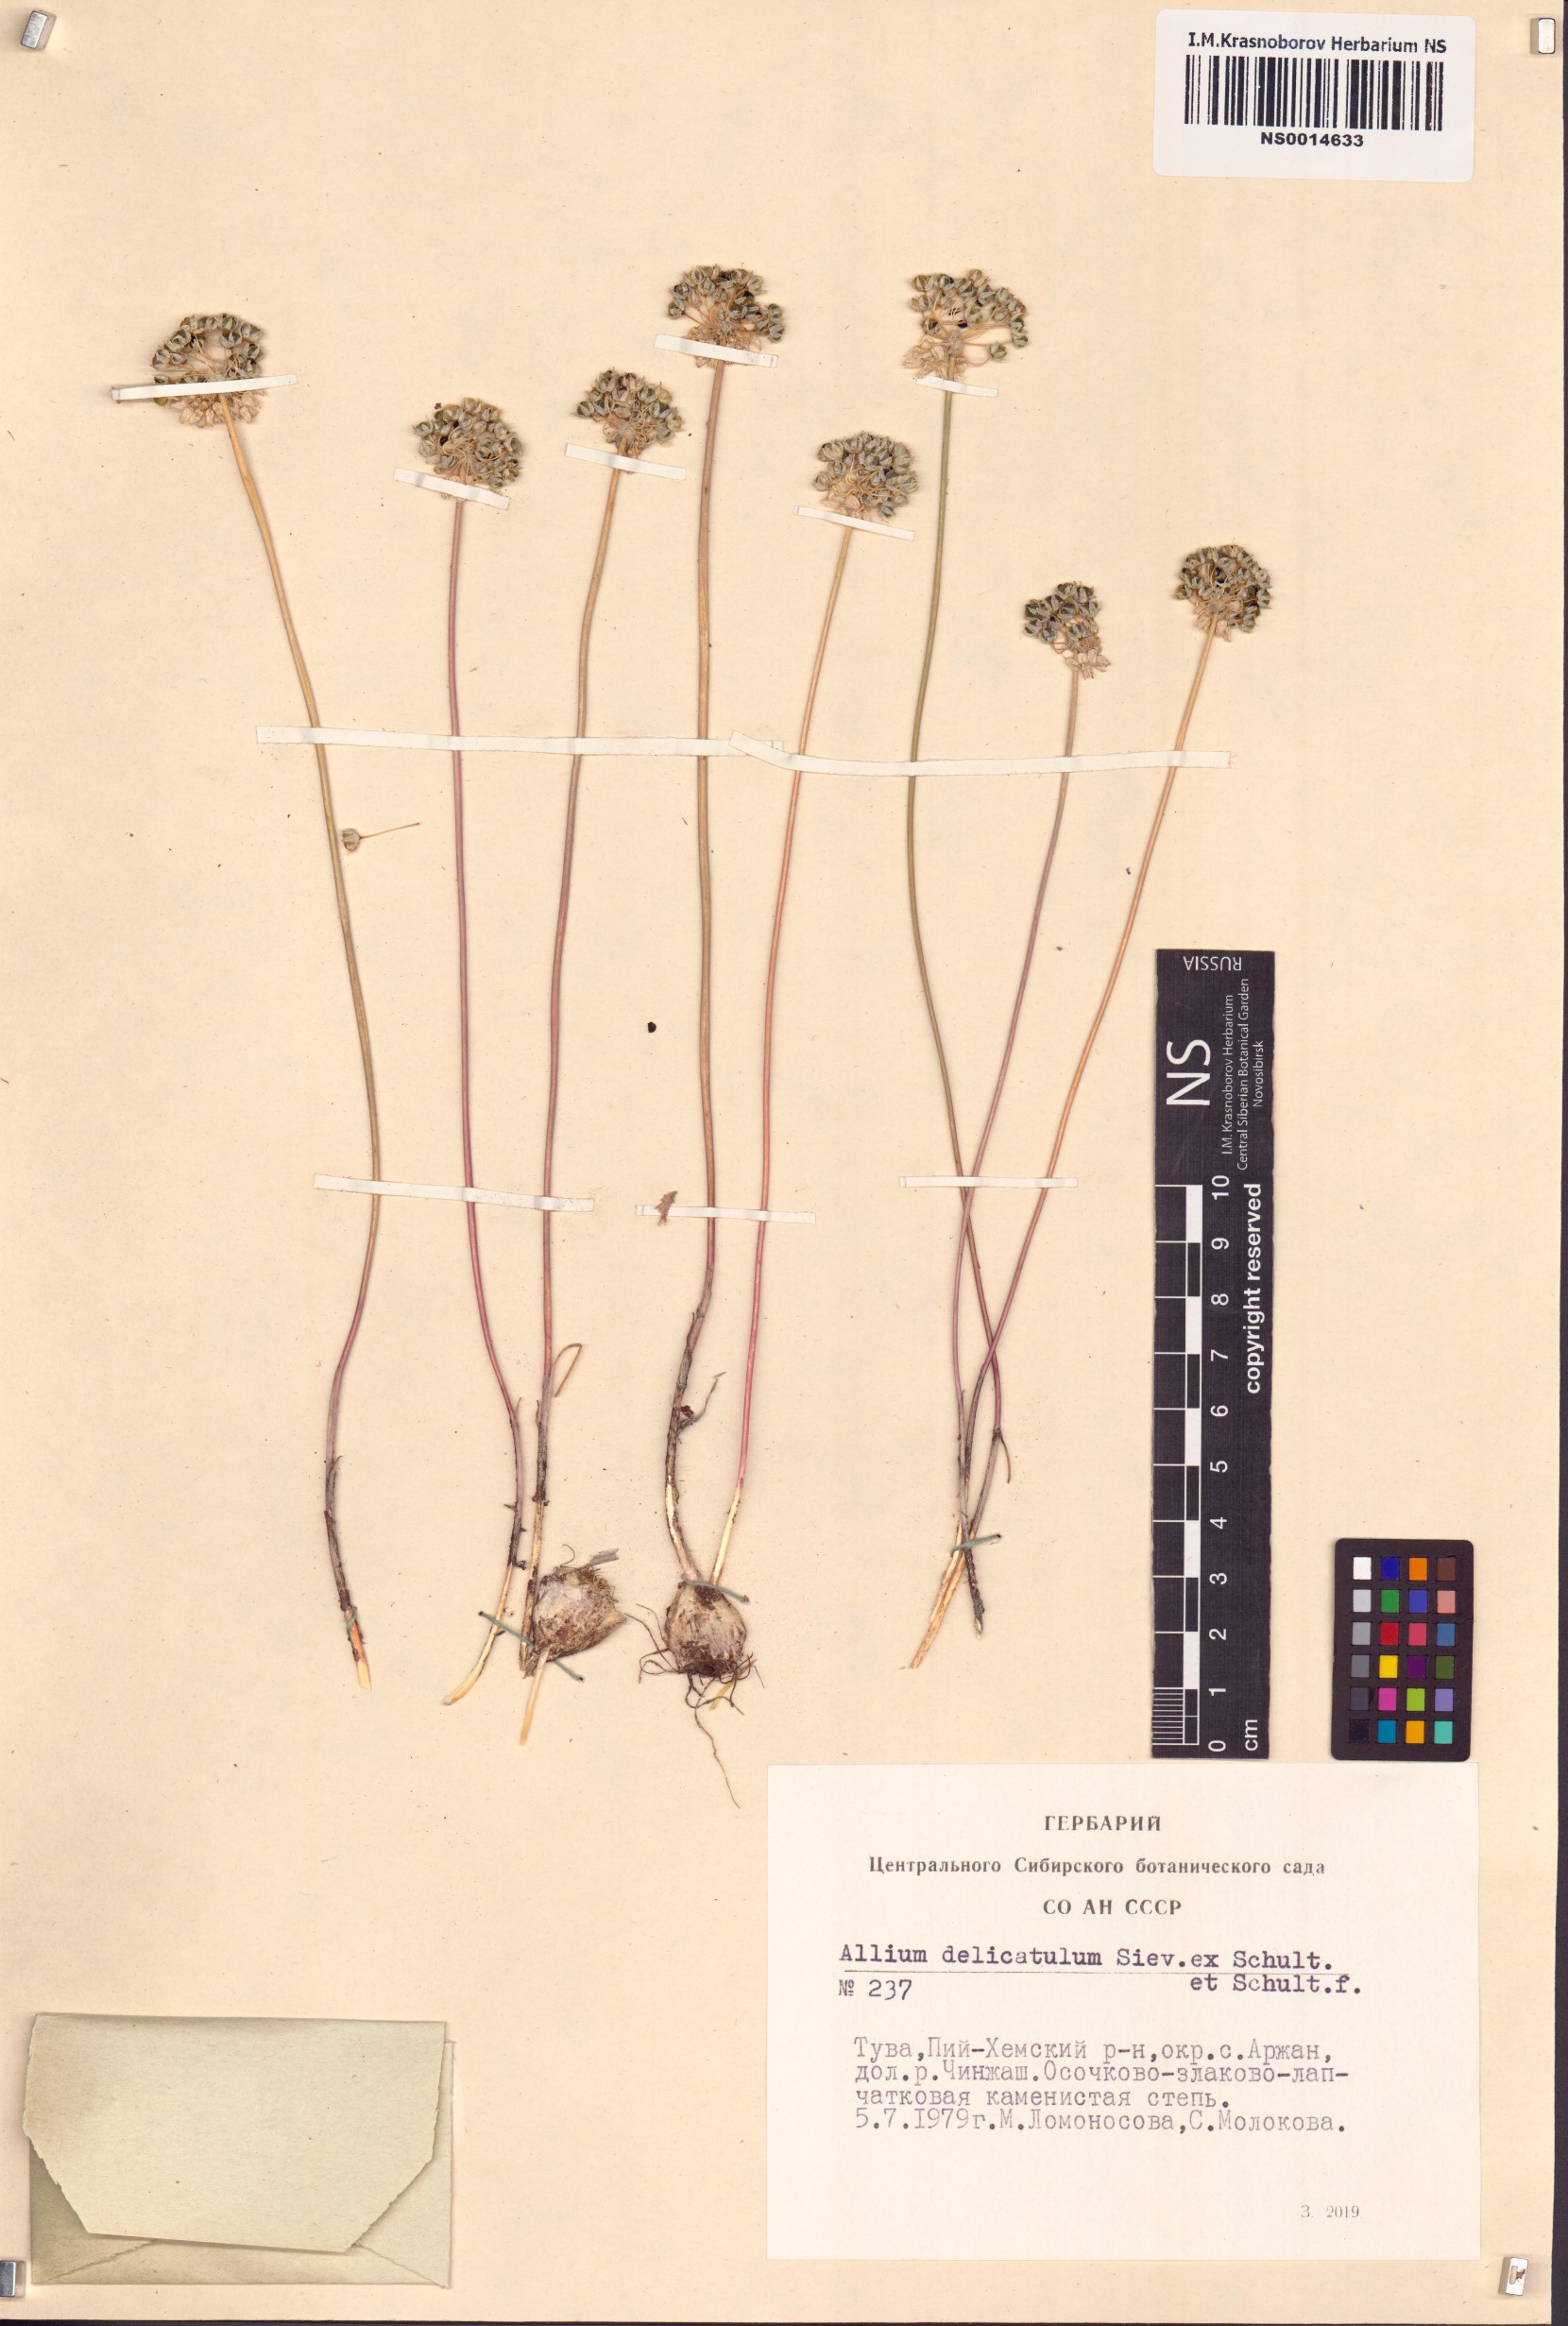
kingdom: Plantae
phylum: Tracheophyta
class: Liliopsida
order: Asparagales
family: Amaryllidaceae
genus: Allium
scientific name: Allium delicatulum
